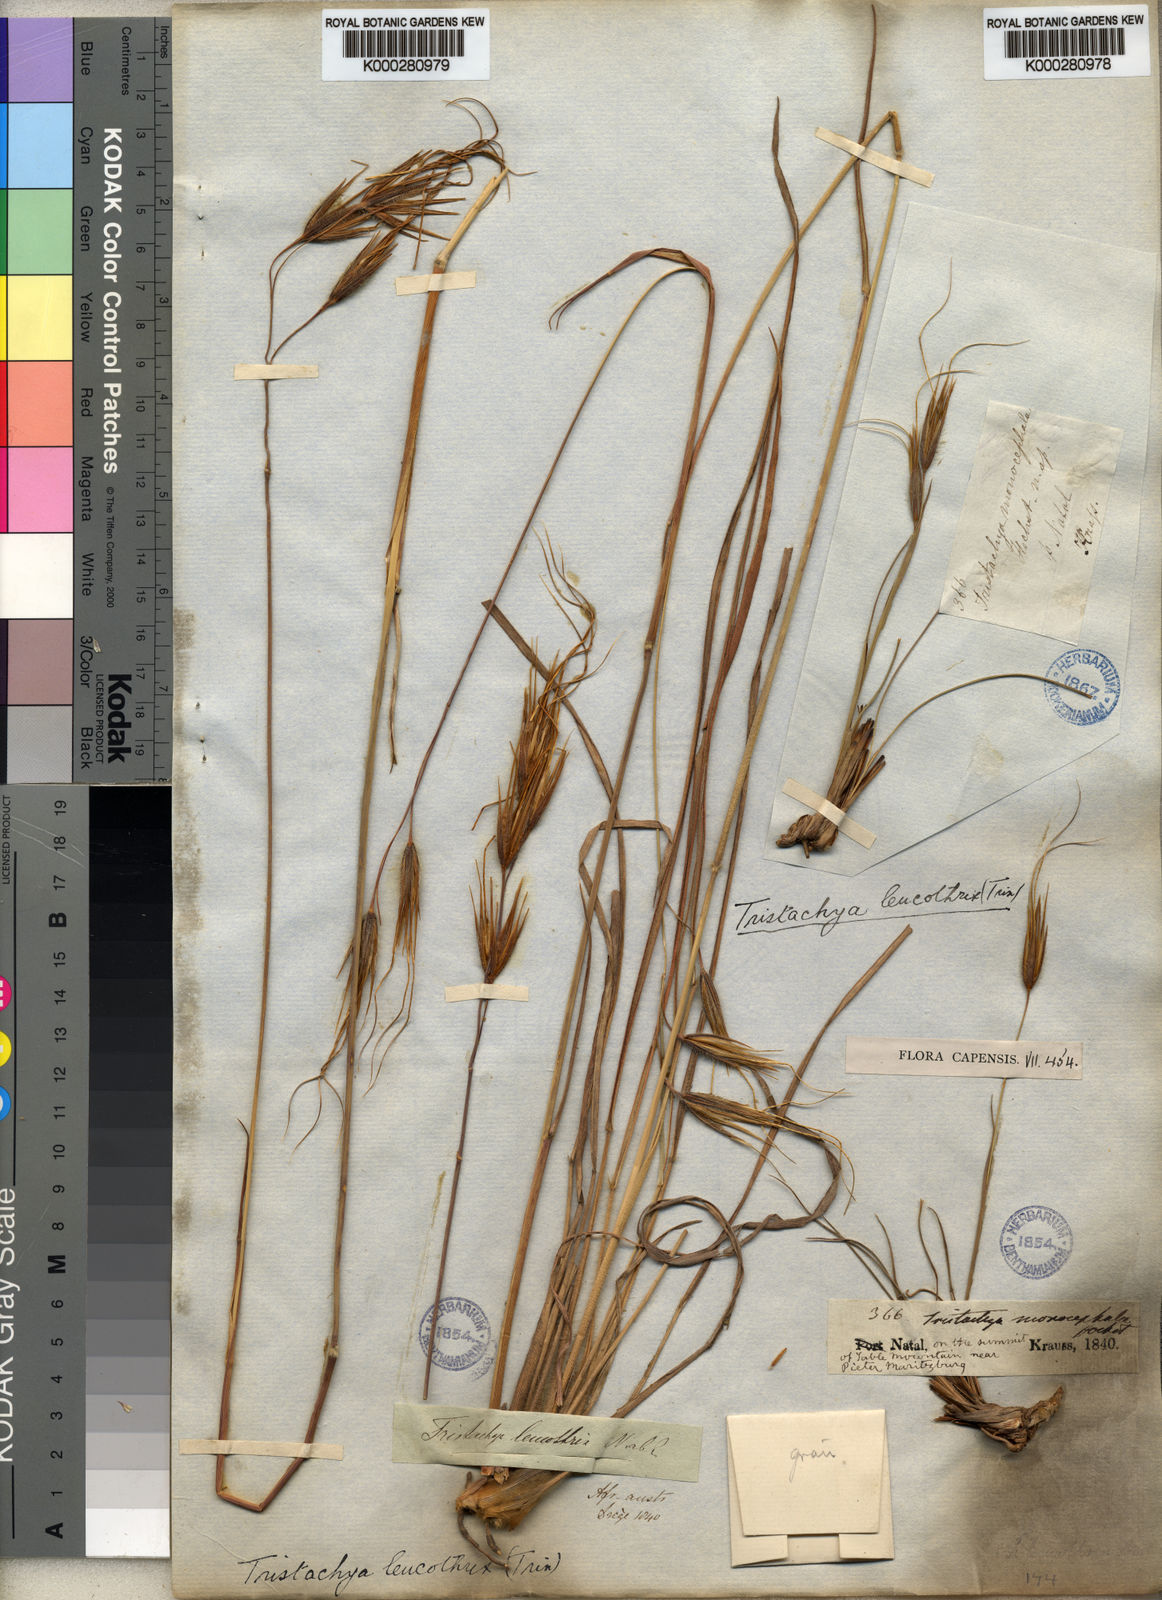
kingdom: Plantae
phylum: Tracheophyta
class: Liliopsida
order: Poales
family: Poaceae
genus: Tristachya
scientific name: Tristachya leucothrix
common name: Trident grass
